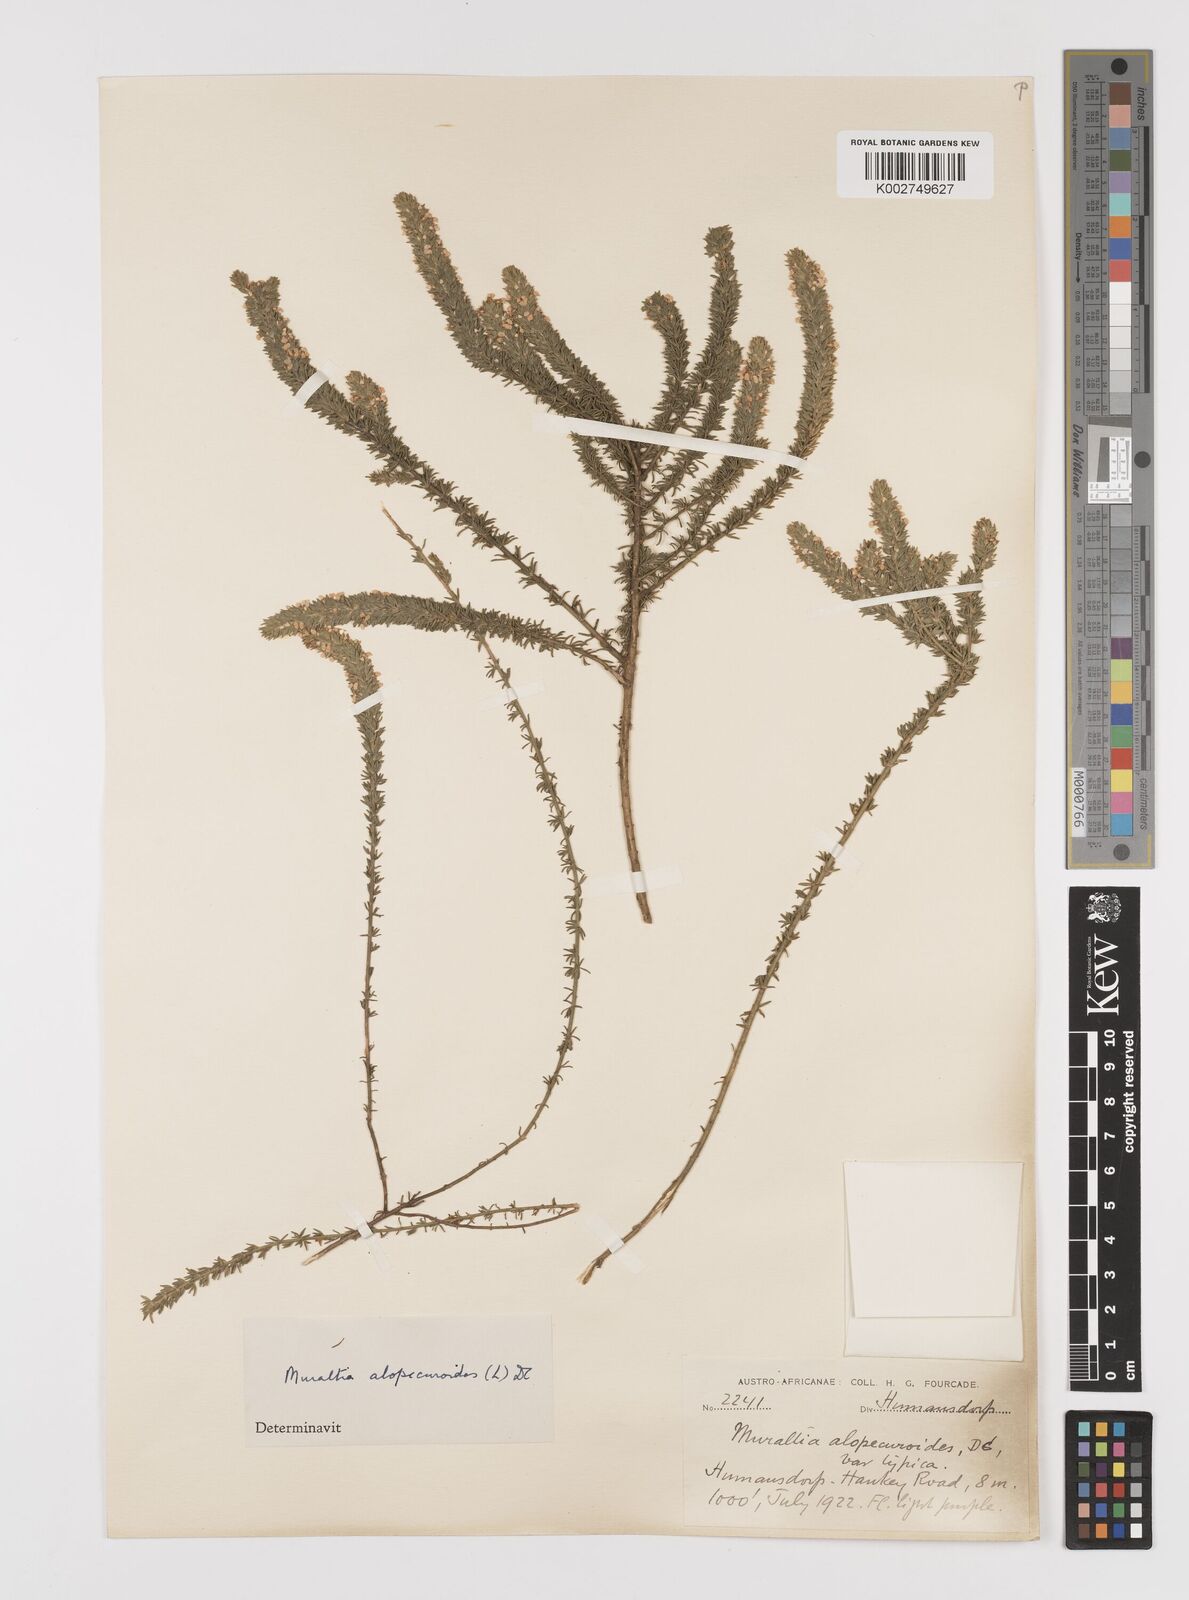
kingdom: Plantae
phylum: Tracheophyta
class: Magnoliopsida
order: Fabales
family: Polygalaceae
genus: Muraltia
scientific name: Muraltia alopecuroides
